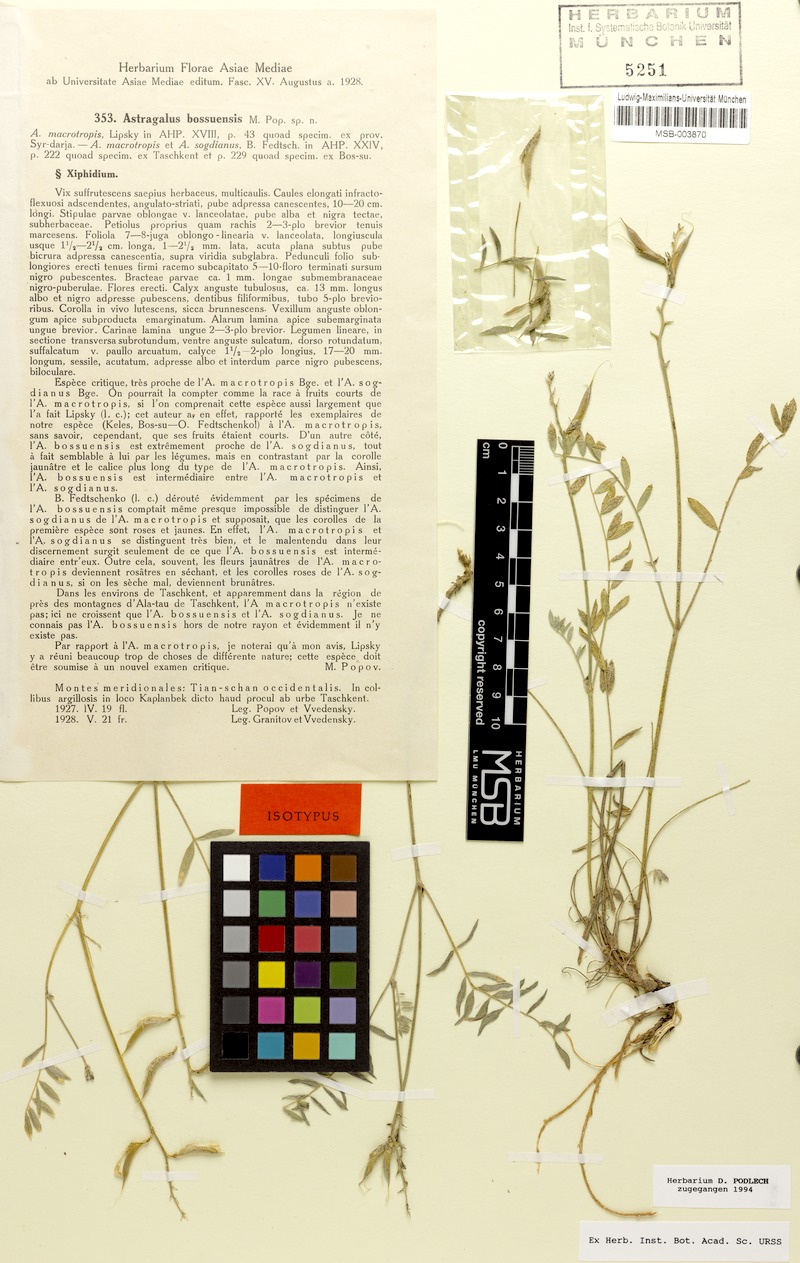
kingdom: Plantae
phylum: Tracheophyta
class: Magnoliopsida
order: Fabales
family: Fabaceae
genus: Astragalus
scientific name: Astragalus bossuensis
